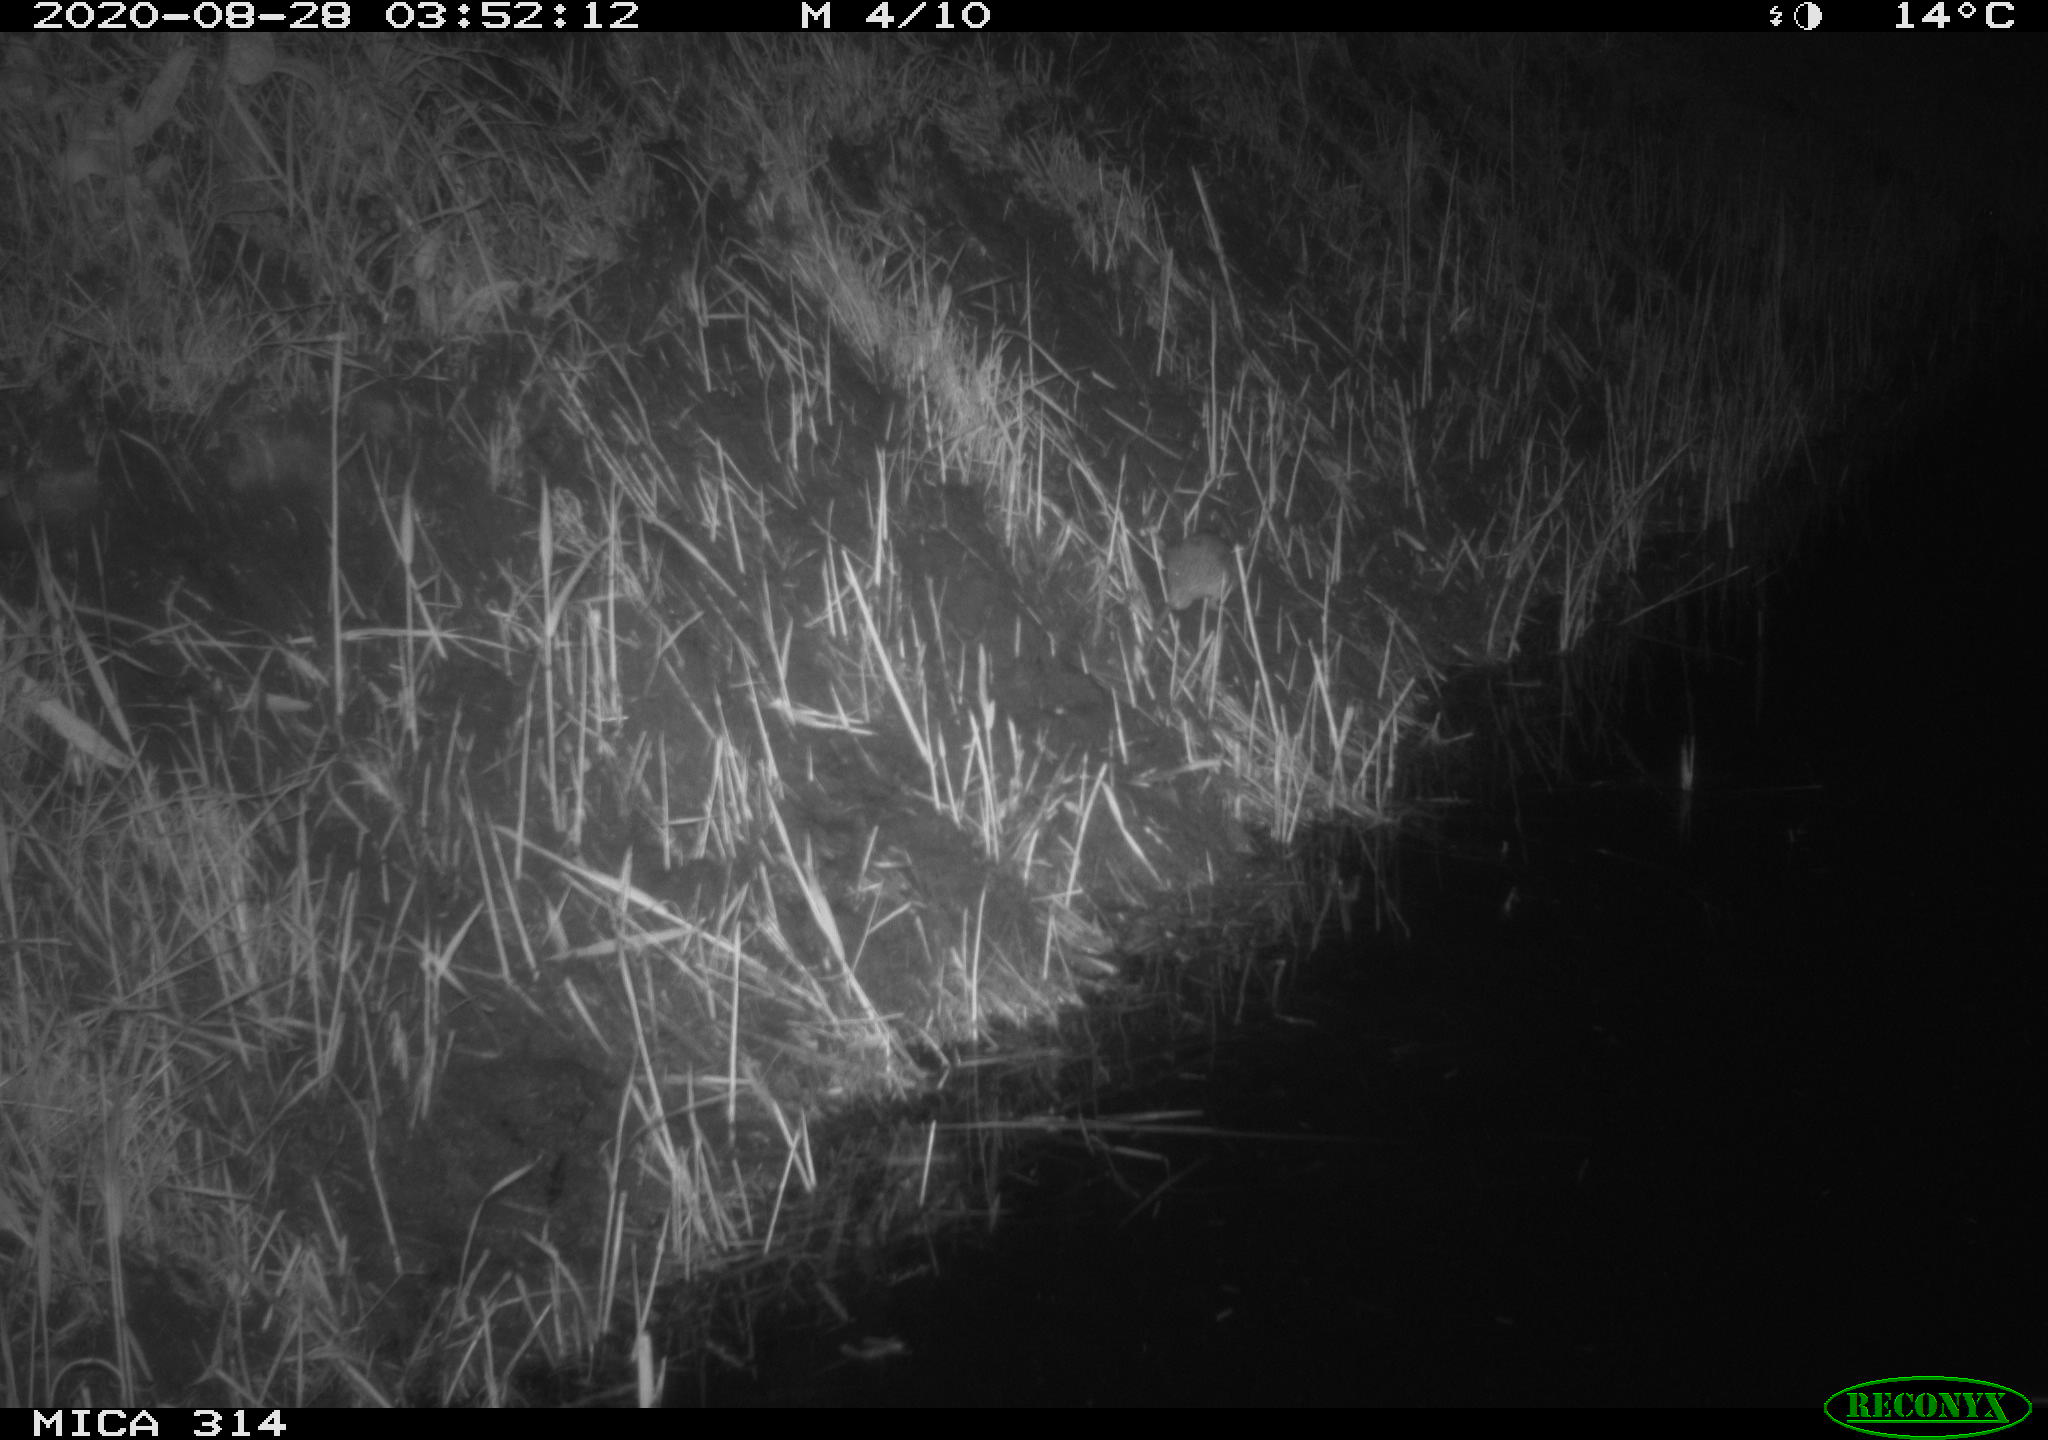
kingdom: Animalia
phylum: Chordata
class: Mammalia
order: Rodentia
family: Muridae
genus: Rattus
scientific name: Rattus norvegicus
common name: Brown rat
